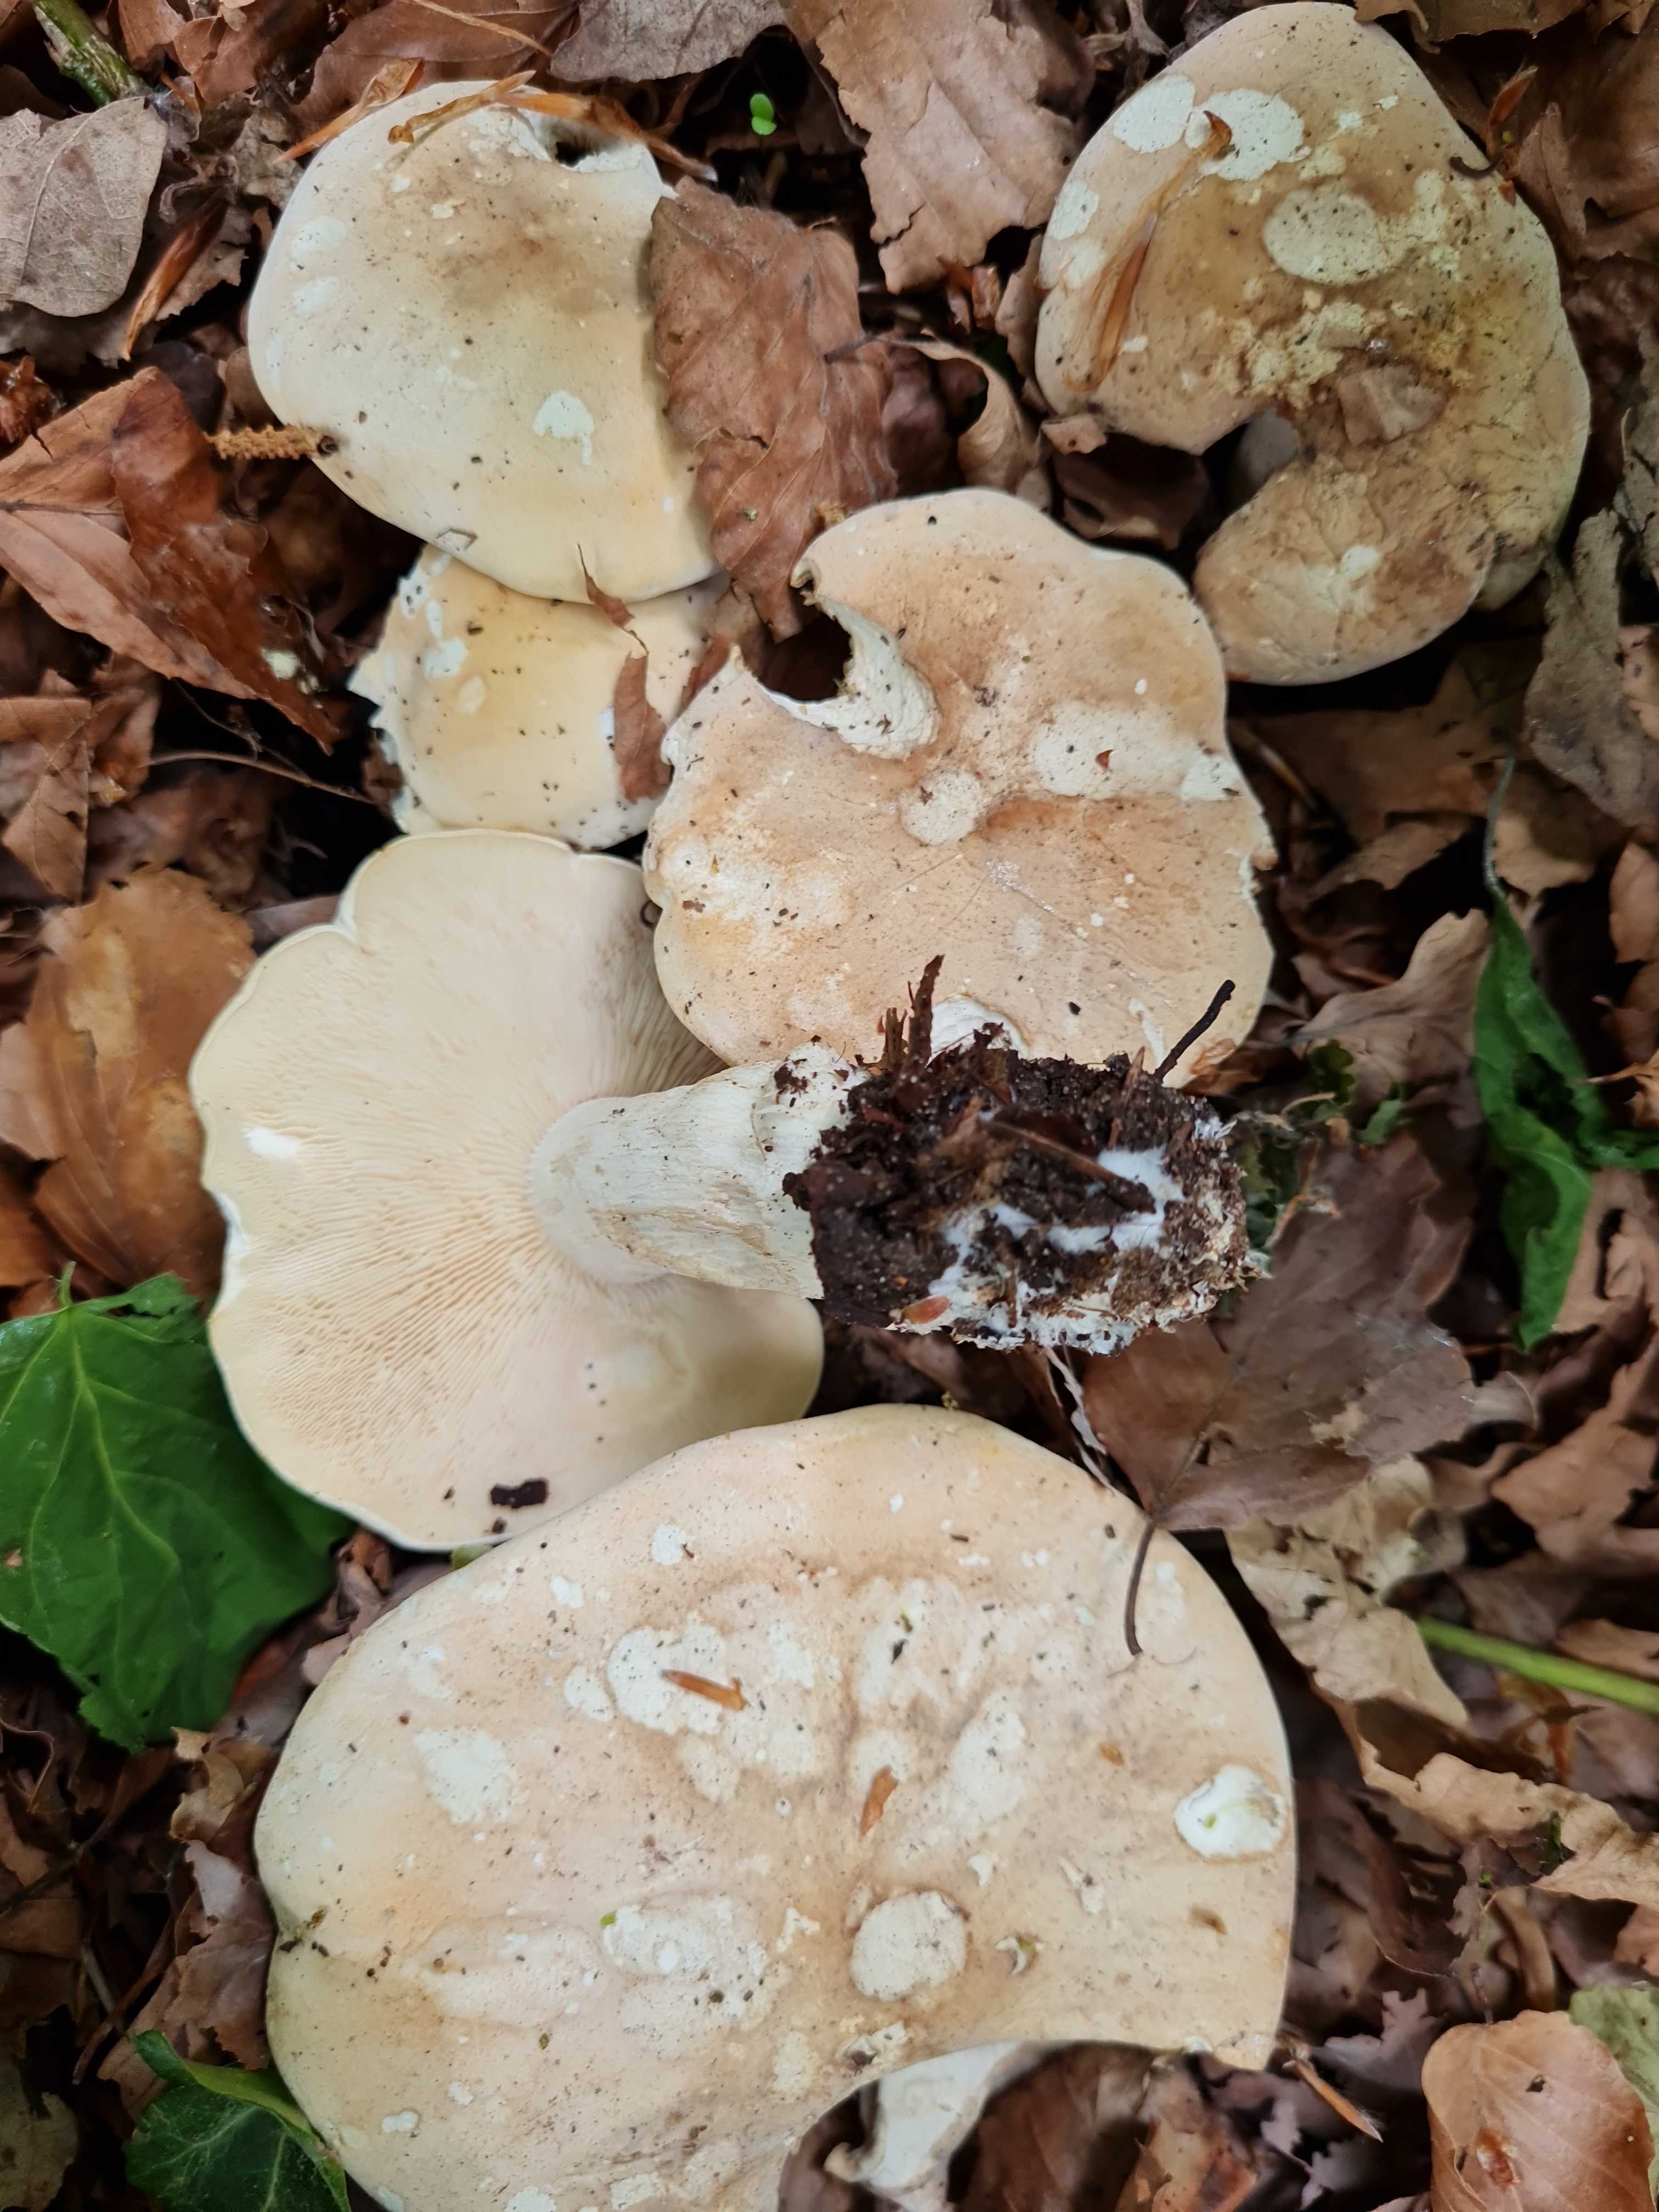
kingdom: Fungi
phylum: Basidiomycota
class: Agaricomycetes
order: Agaricales
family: Lyophyllaceae
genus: Calocybe
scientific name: Calocybe gambosa
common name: vårmusseron
